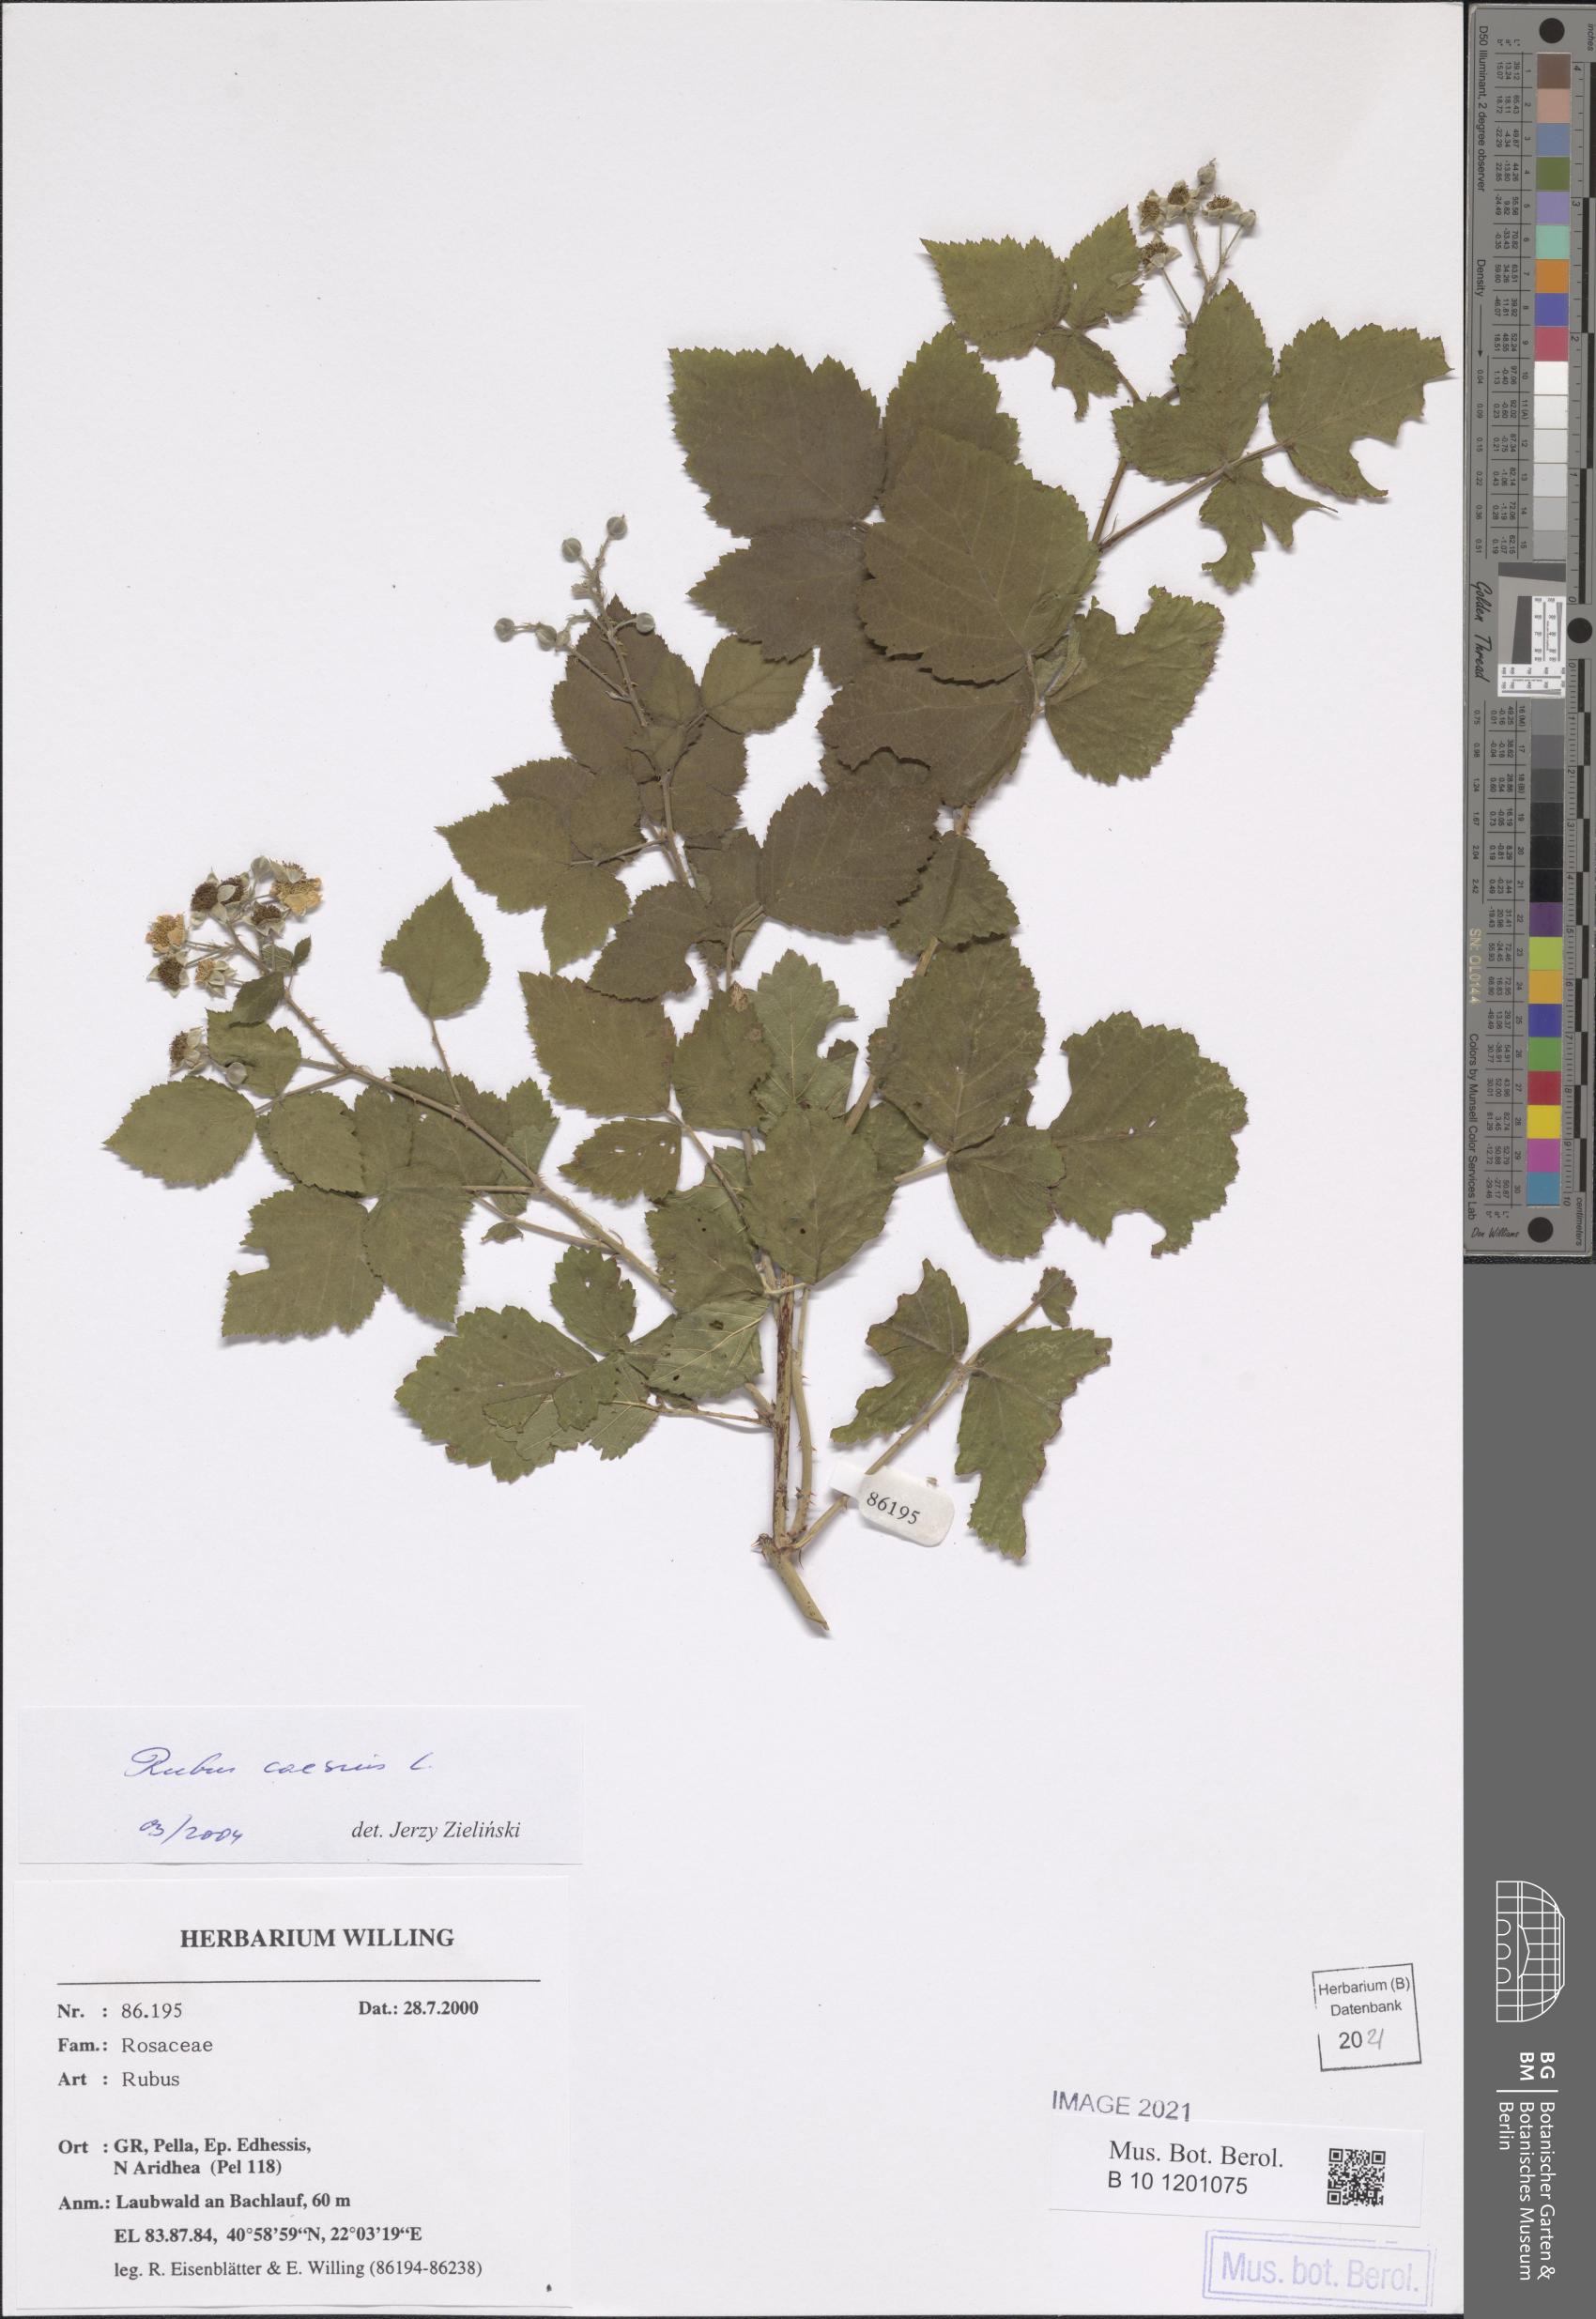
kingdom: Plantae
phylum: Tracheophyta
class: Magnoliopsida
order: Rosales
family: Rosaceae
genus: Rubus
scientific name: Rubus caesius
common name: Dewberry
